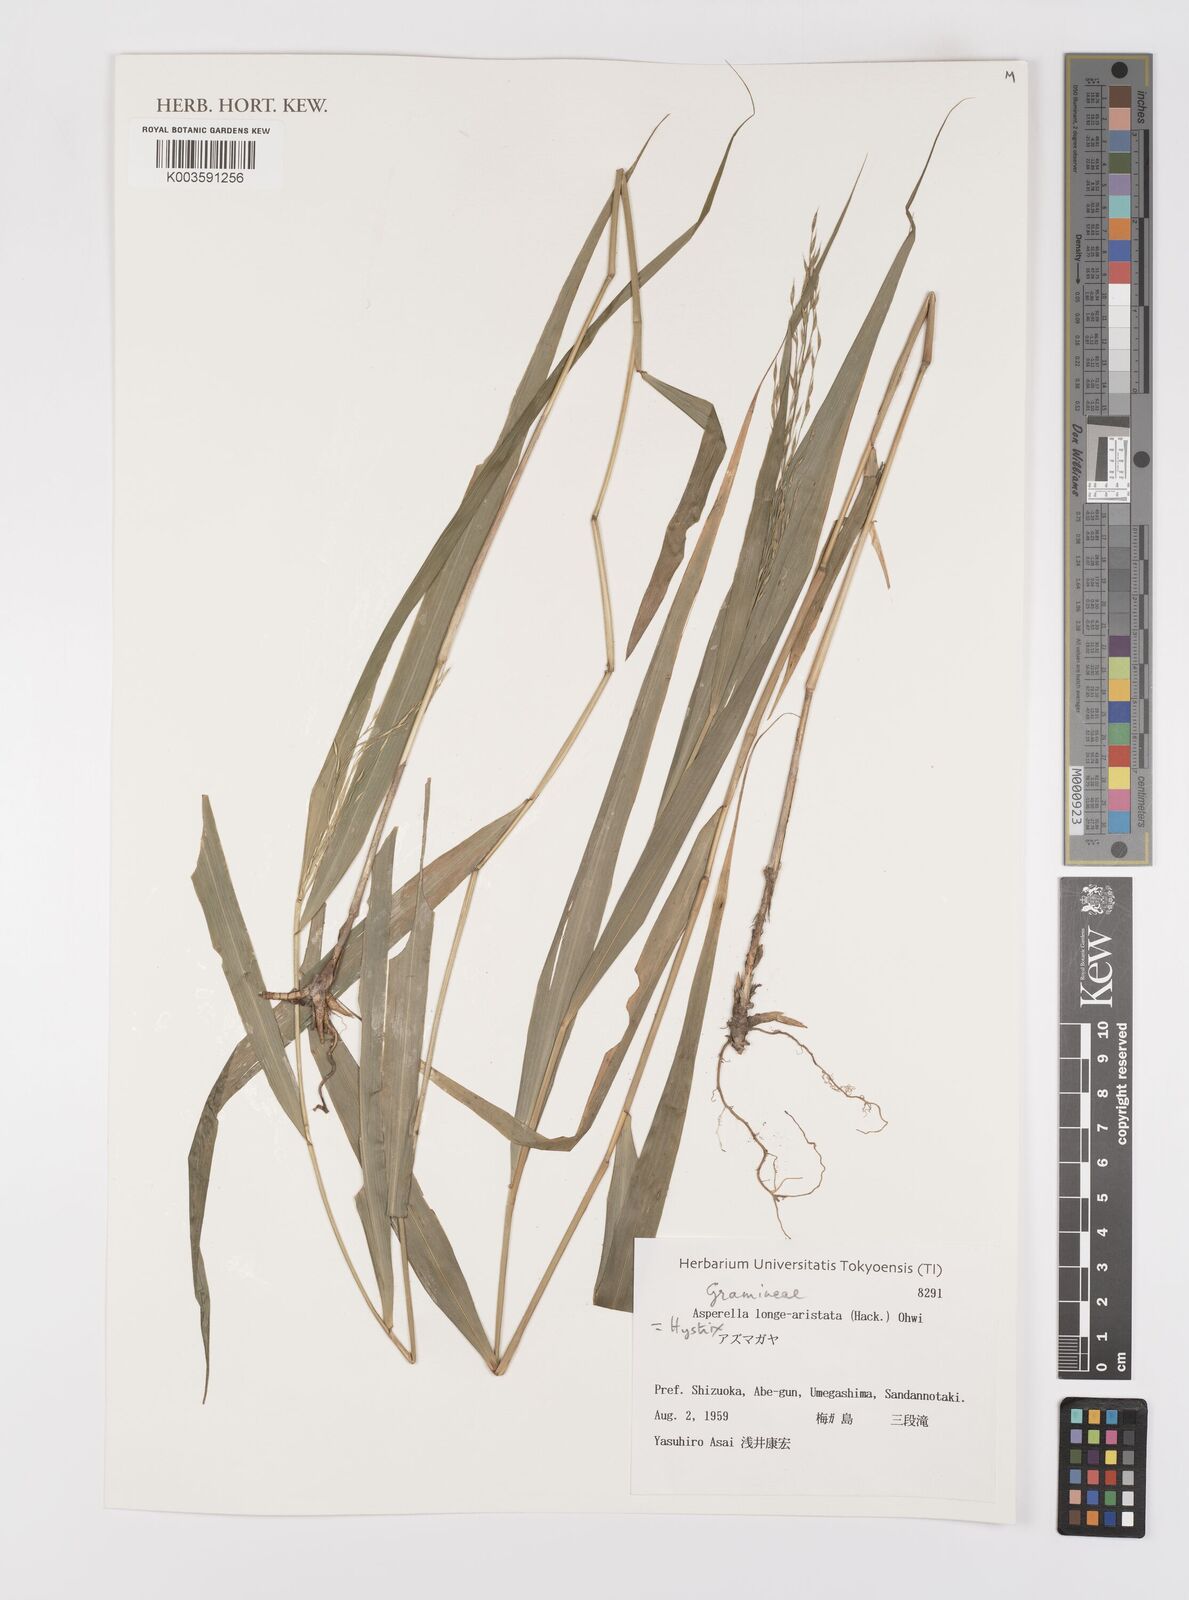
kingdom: Plantae
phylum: Tracheophyta
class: Liliopsida
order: Poales
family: Poaceae
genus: Leymus
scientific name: Leymus duthiei
